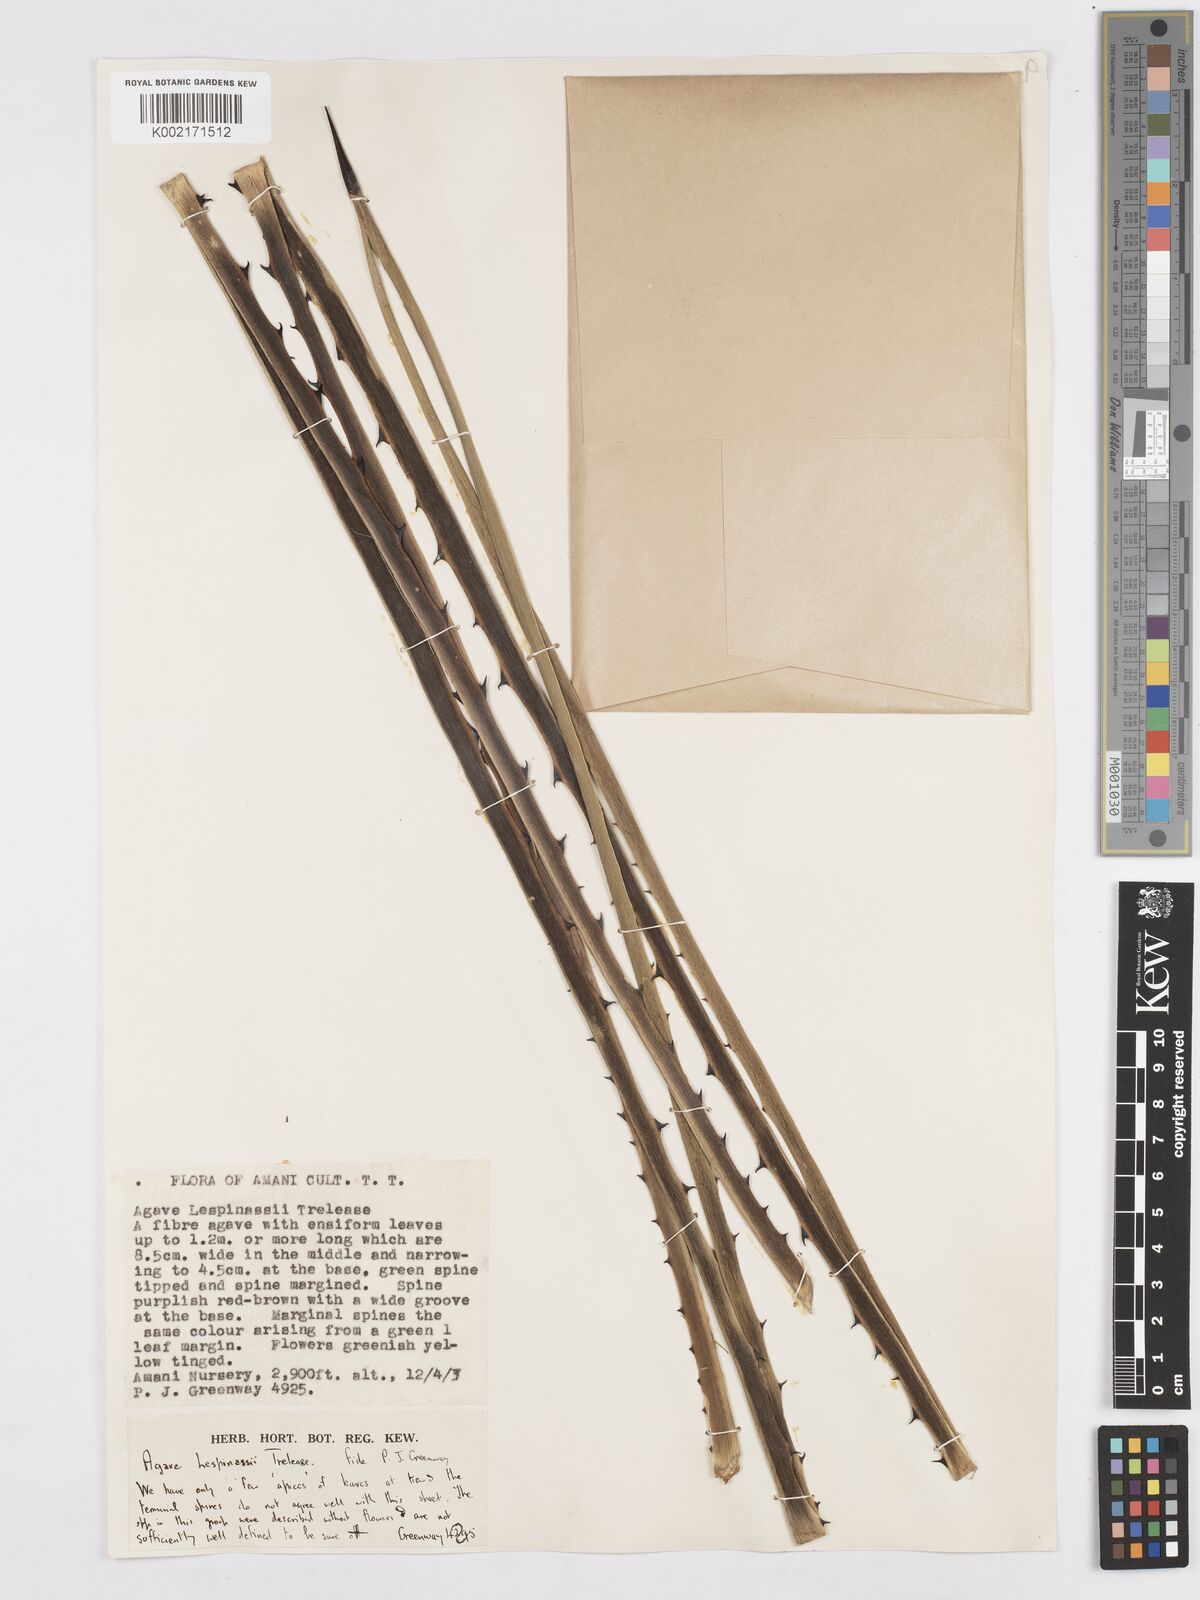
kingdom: Plantae
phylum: Tracheophyta
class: Liliopsida
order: Asparagales
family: Asparagaceae
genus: Agave
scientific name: Agave angustifolia
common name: Mescal agave
